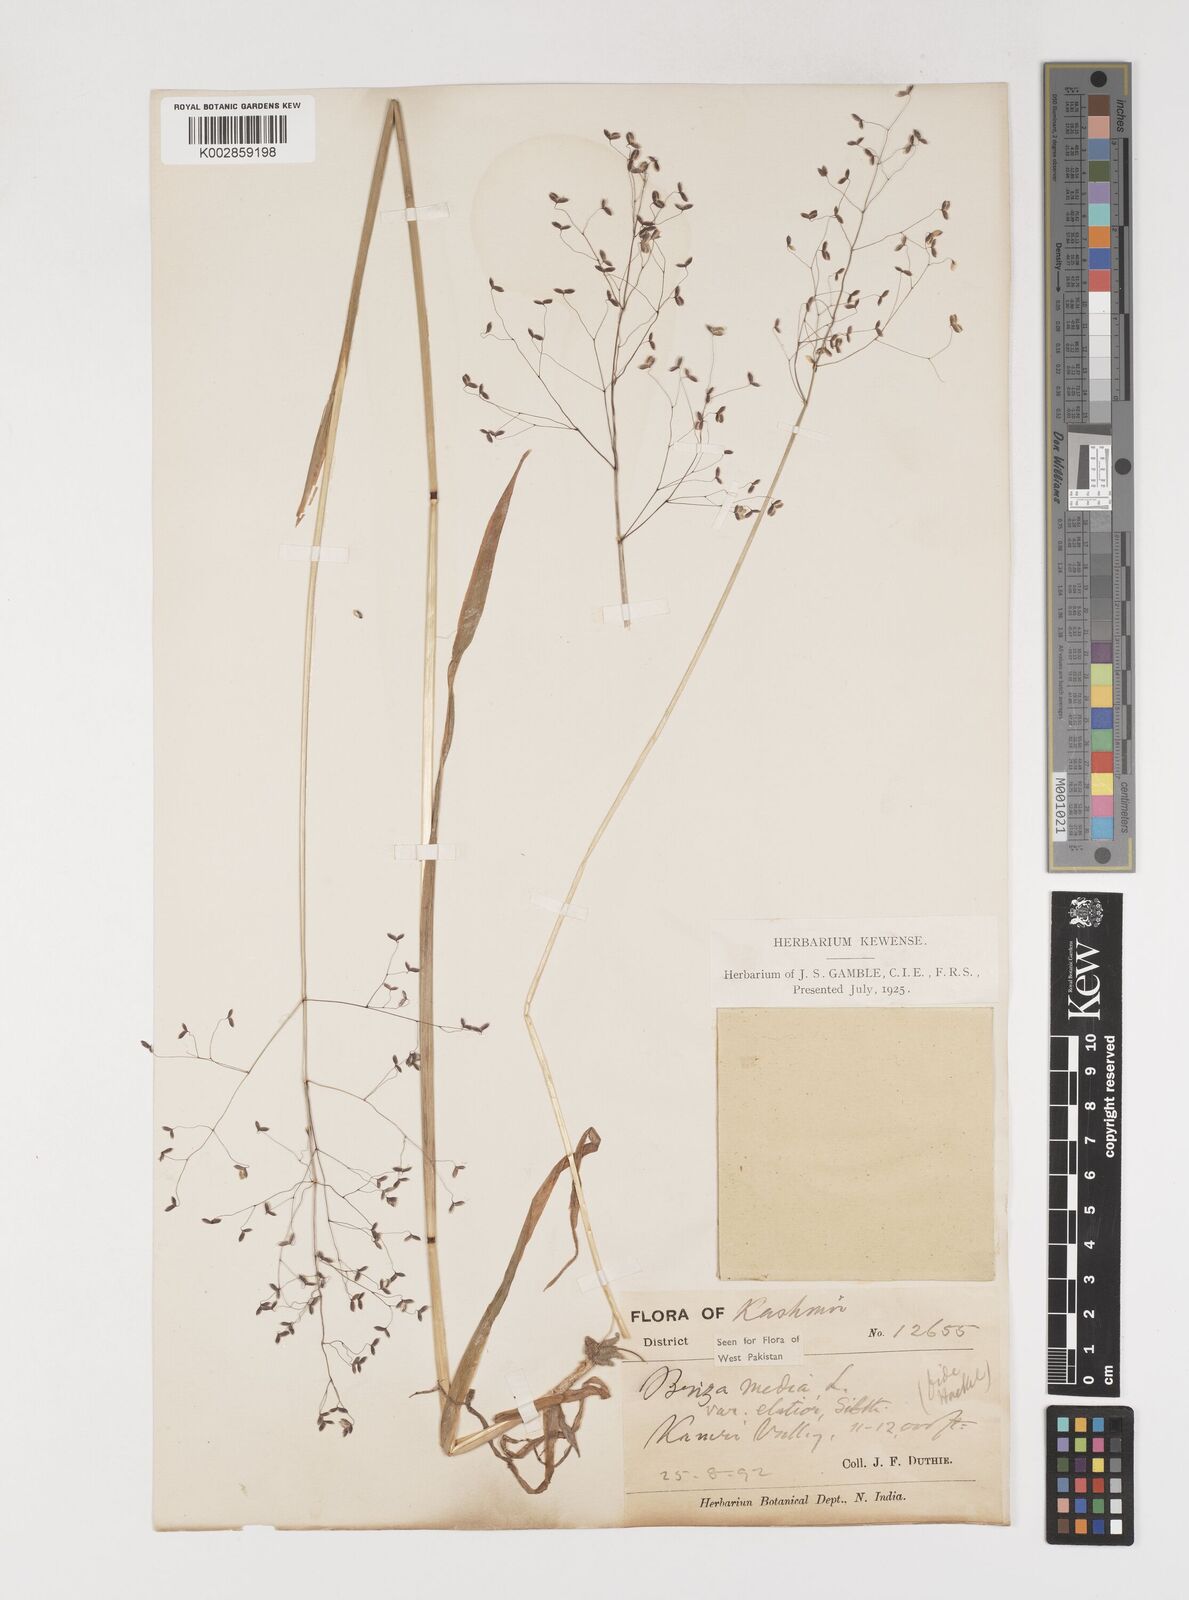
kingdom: Plantae
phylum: Tracheophyta
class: Liliopsida
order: Poales
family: Poaceae
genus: Briza
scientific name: Briza media
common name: Quaking grass
